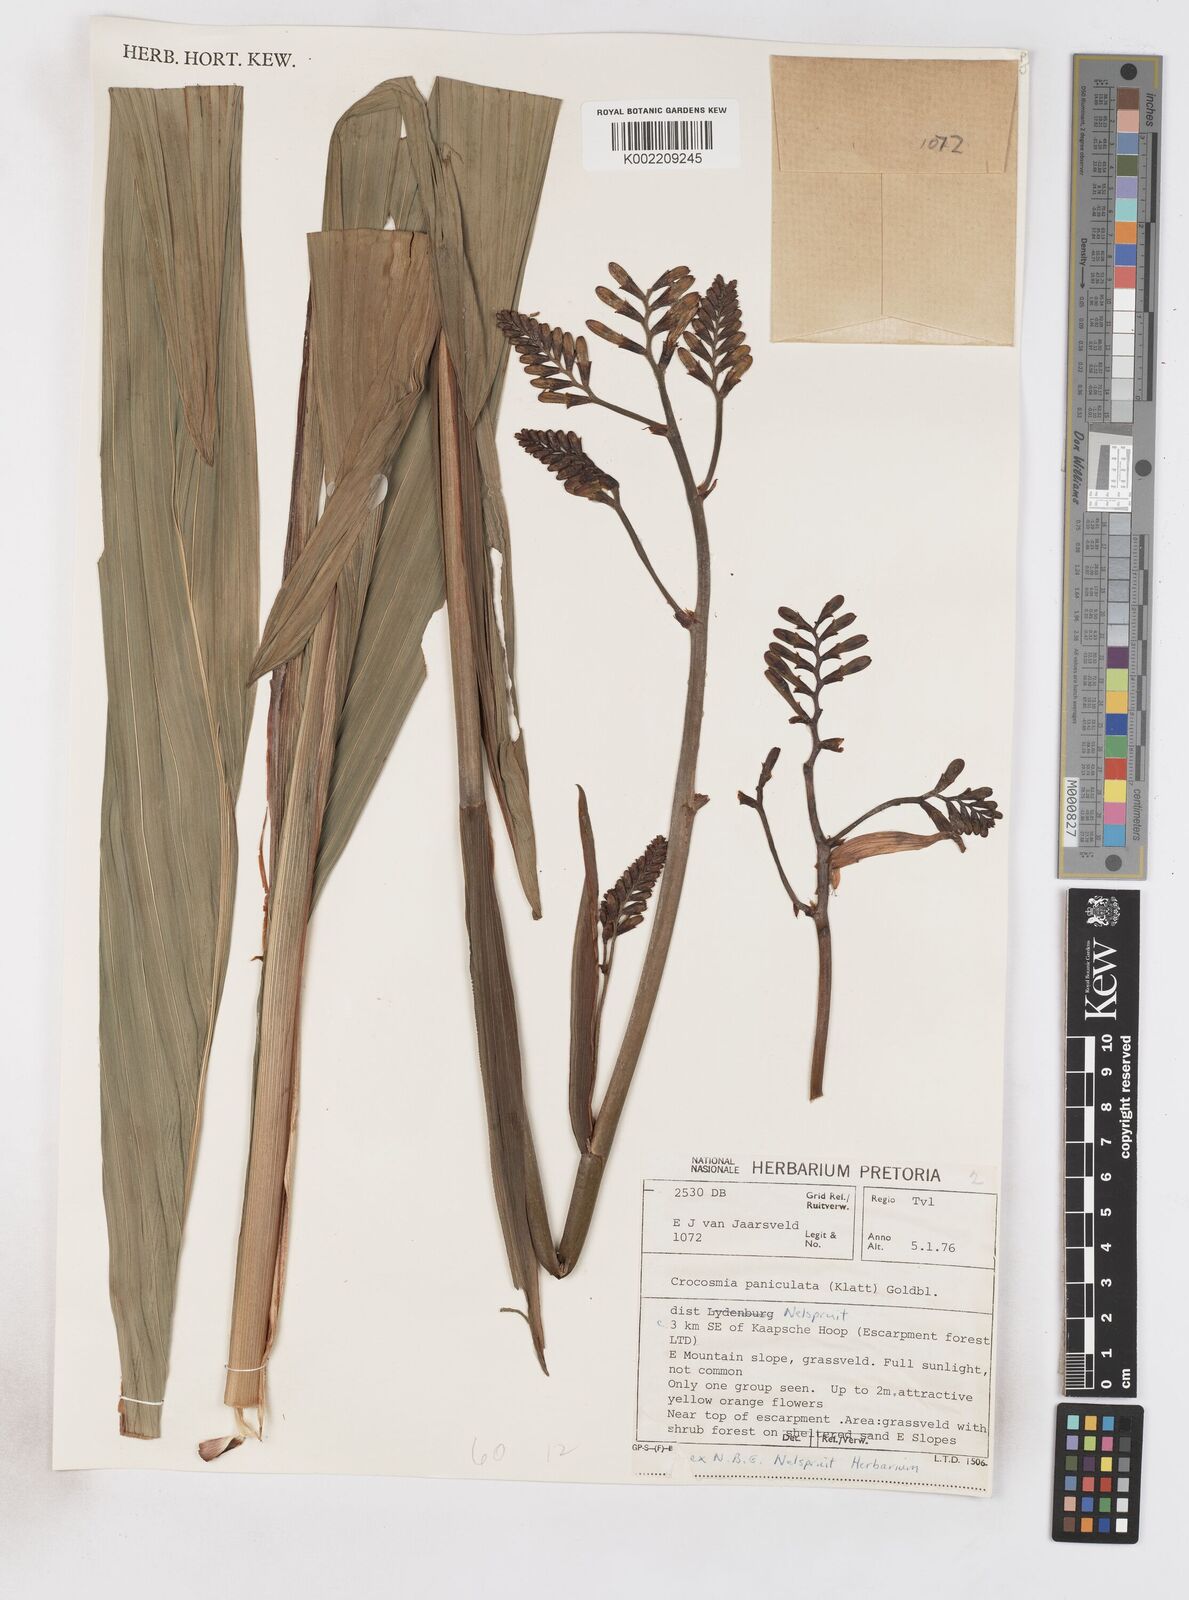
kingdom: Plantae
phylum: Tracheophyta
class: Liliopsida
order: Asparagales
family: Iridaceae
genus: Crocosmia
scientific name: Crocosmia paniculata
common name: Aunt eliza
